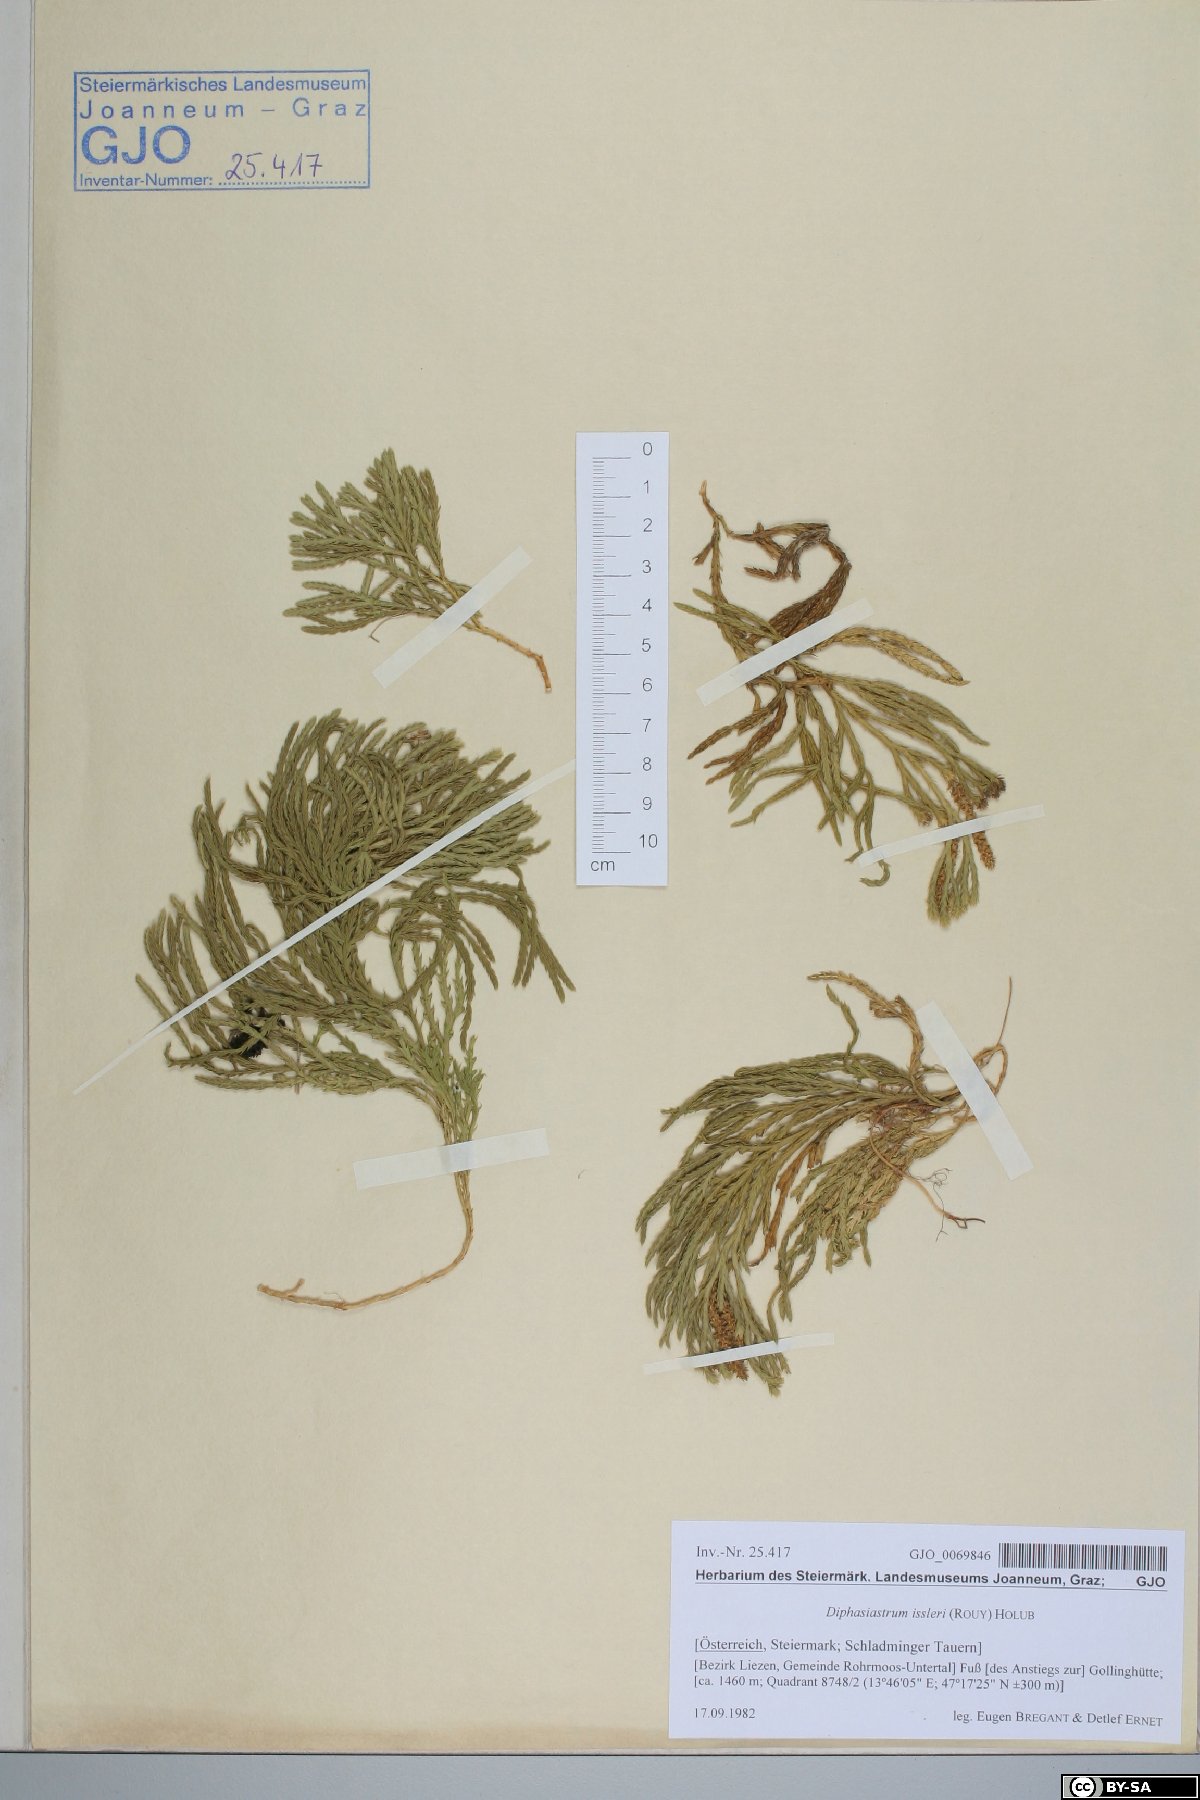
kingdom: Plantae
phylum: Tracheophyta
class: Lycopodiopsida
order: Lycopodiales
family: Lycopodiaceae
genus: Diphasiastrum
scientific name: Diphasiastrum issleri
